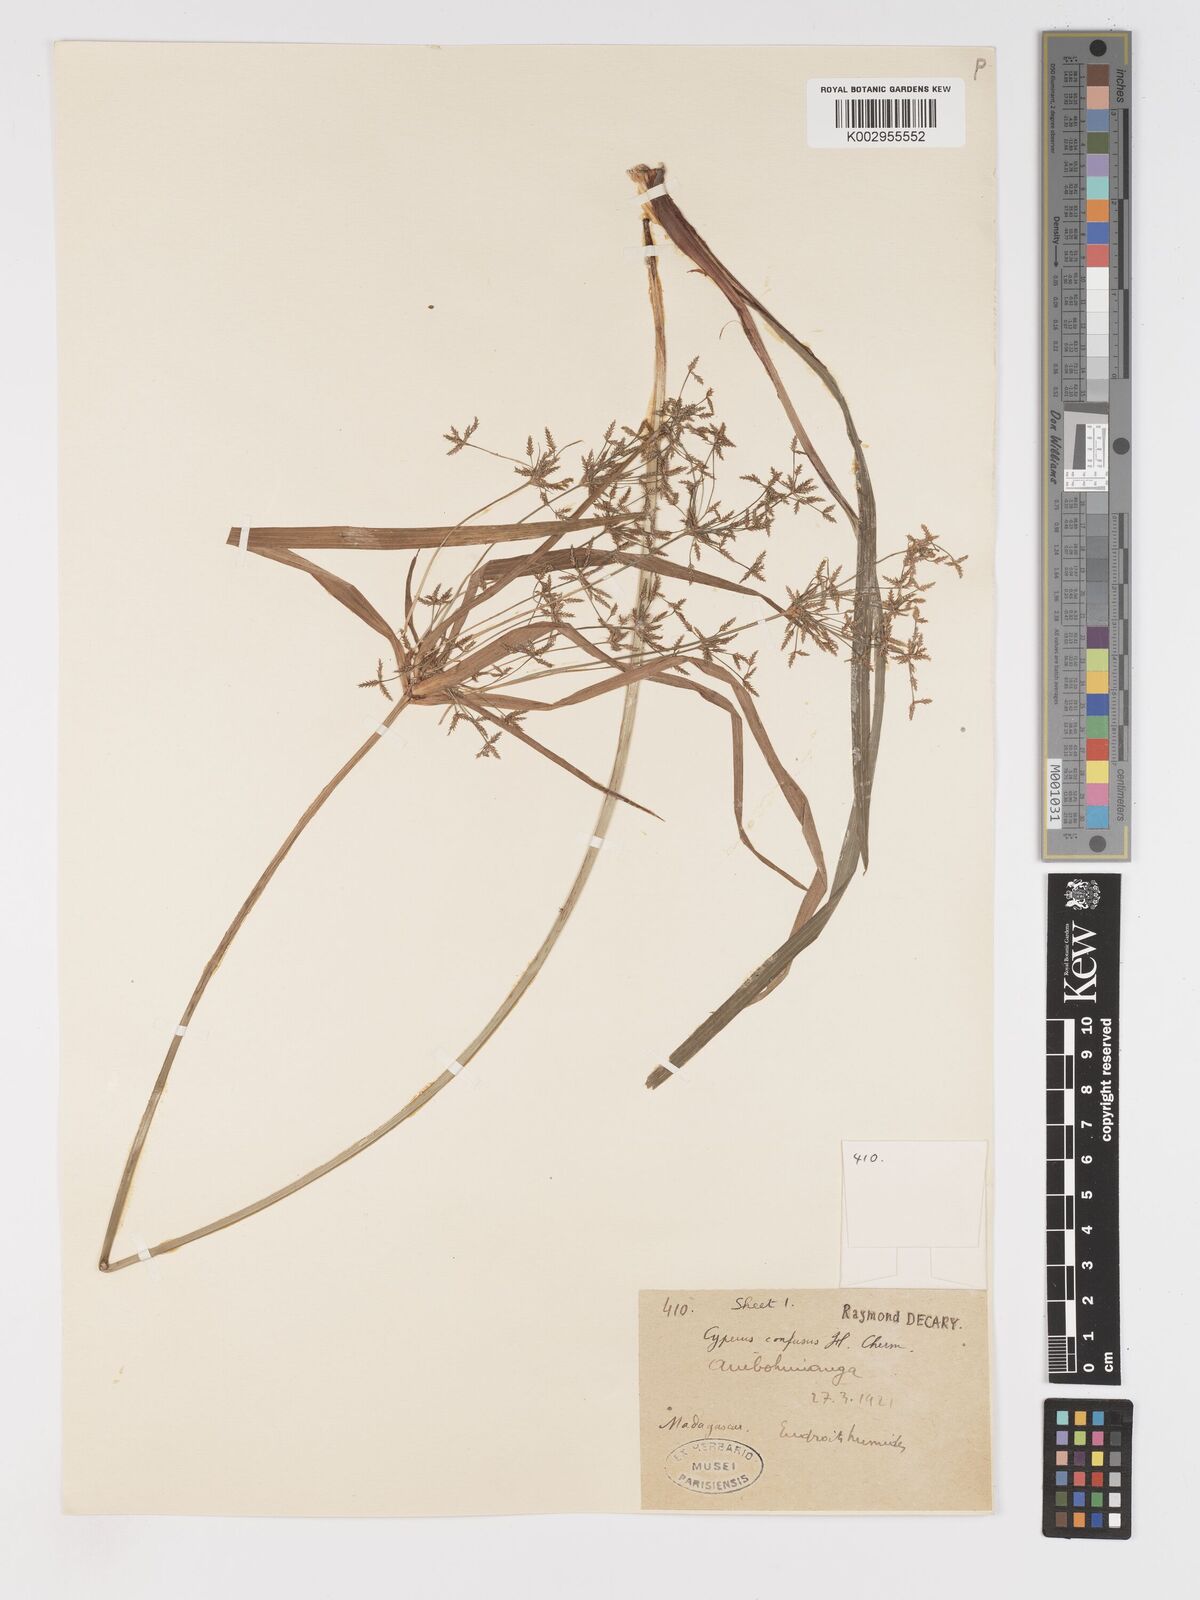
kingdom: Plantae
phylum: Tracheophyta
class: Liliopsida
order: Poales
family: Cyperaceae
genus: Cyperus
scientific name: Cyperus longifolius
